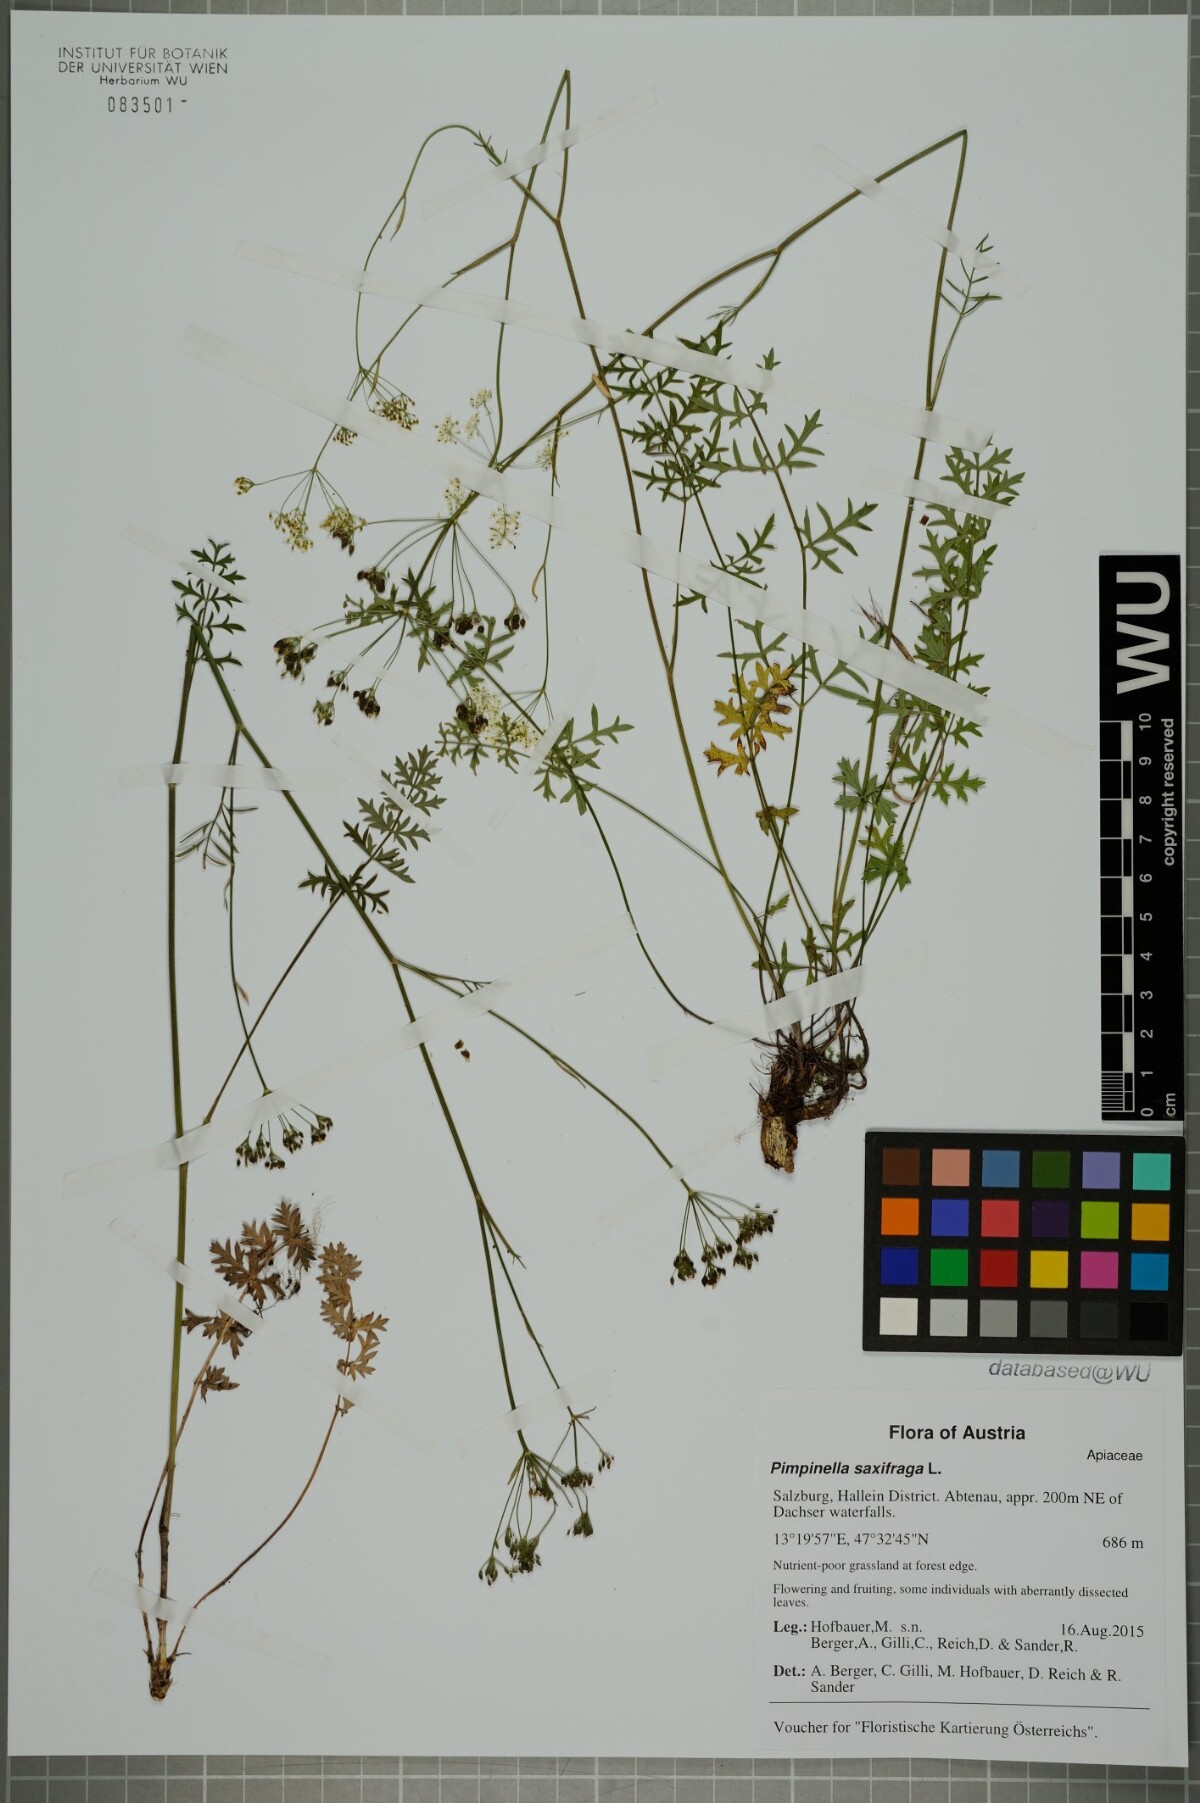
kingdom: Plantae
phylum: Tracheophyta
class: Magnoliopsida
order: Apiales
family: Apiaceae
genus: Pimpinella
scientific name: Pimpinella saxifraga
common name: Burnet-saxifrage
